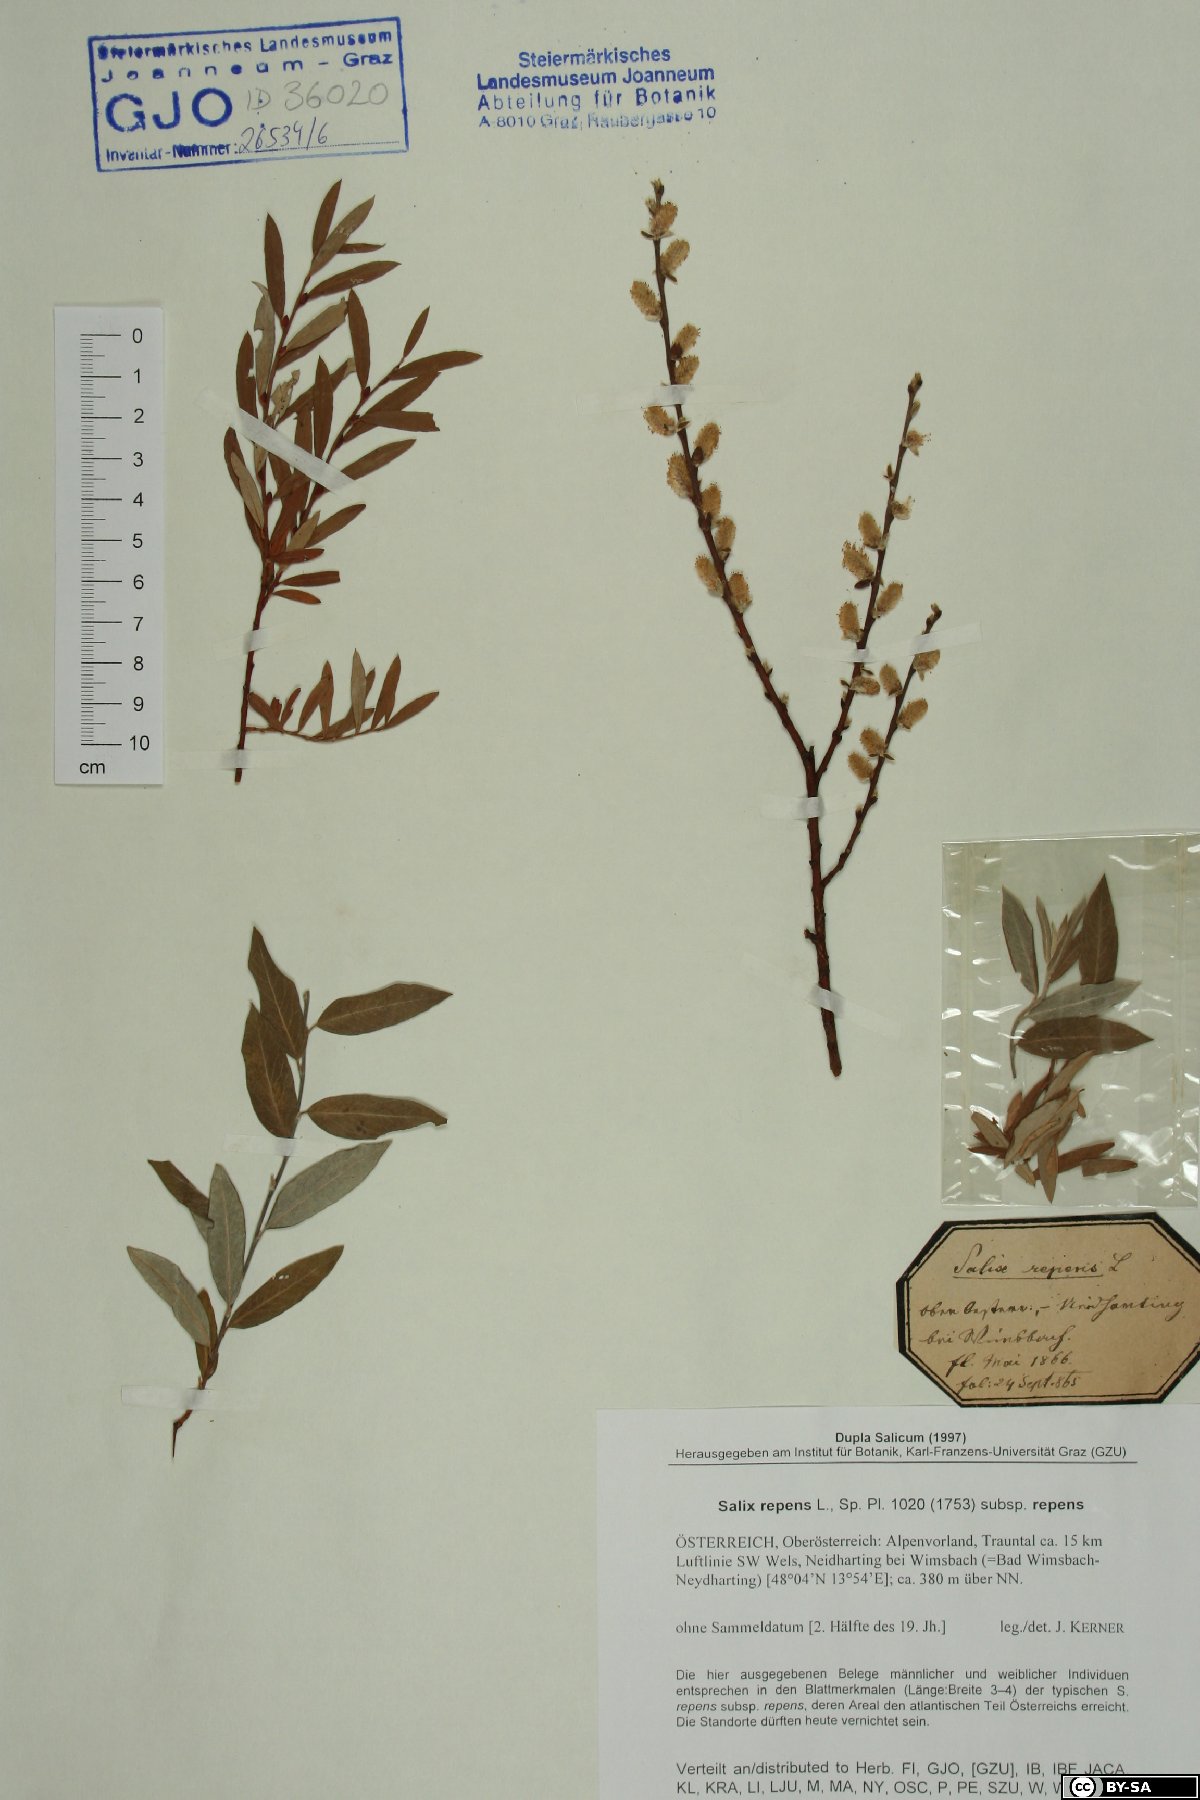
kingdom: Plantae
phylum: Tracheophyta
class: Magnoliopsida
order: Malpighiales
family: Salicaceae
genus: Salix
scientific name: Salix repens
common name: Creeping willow
